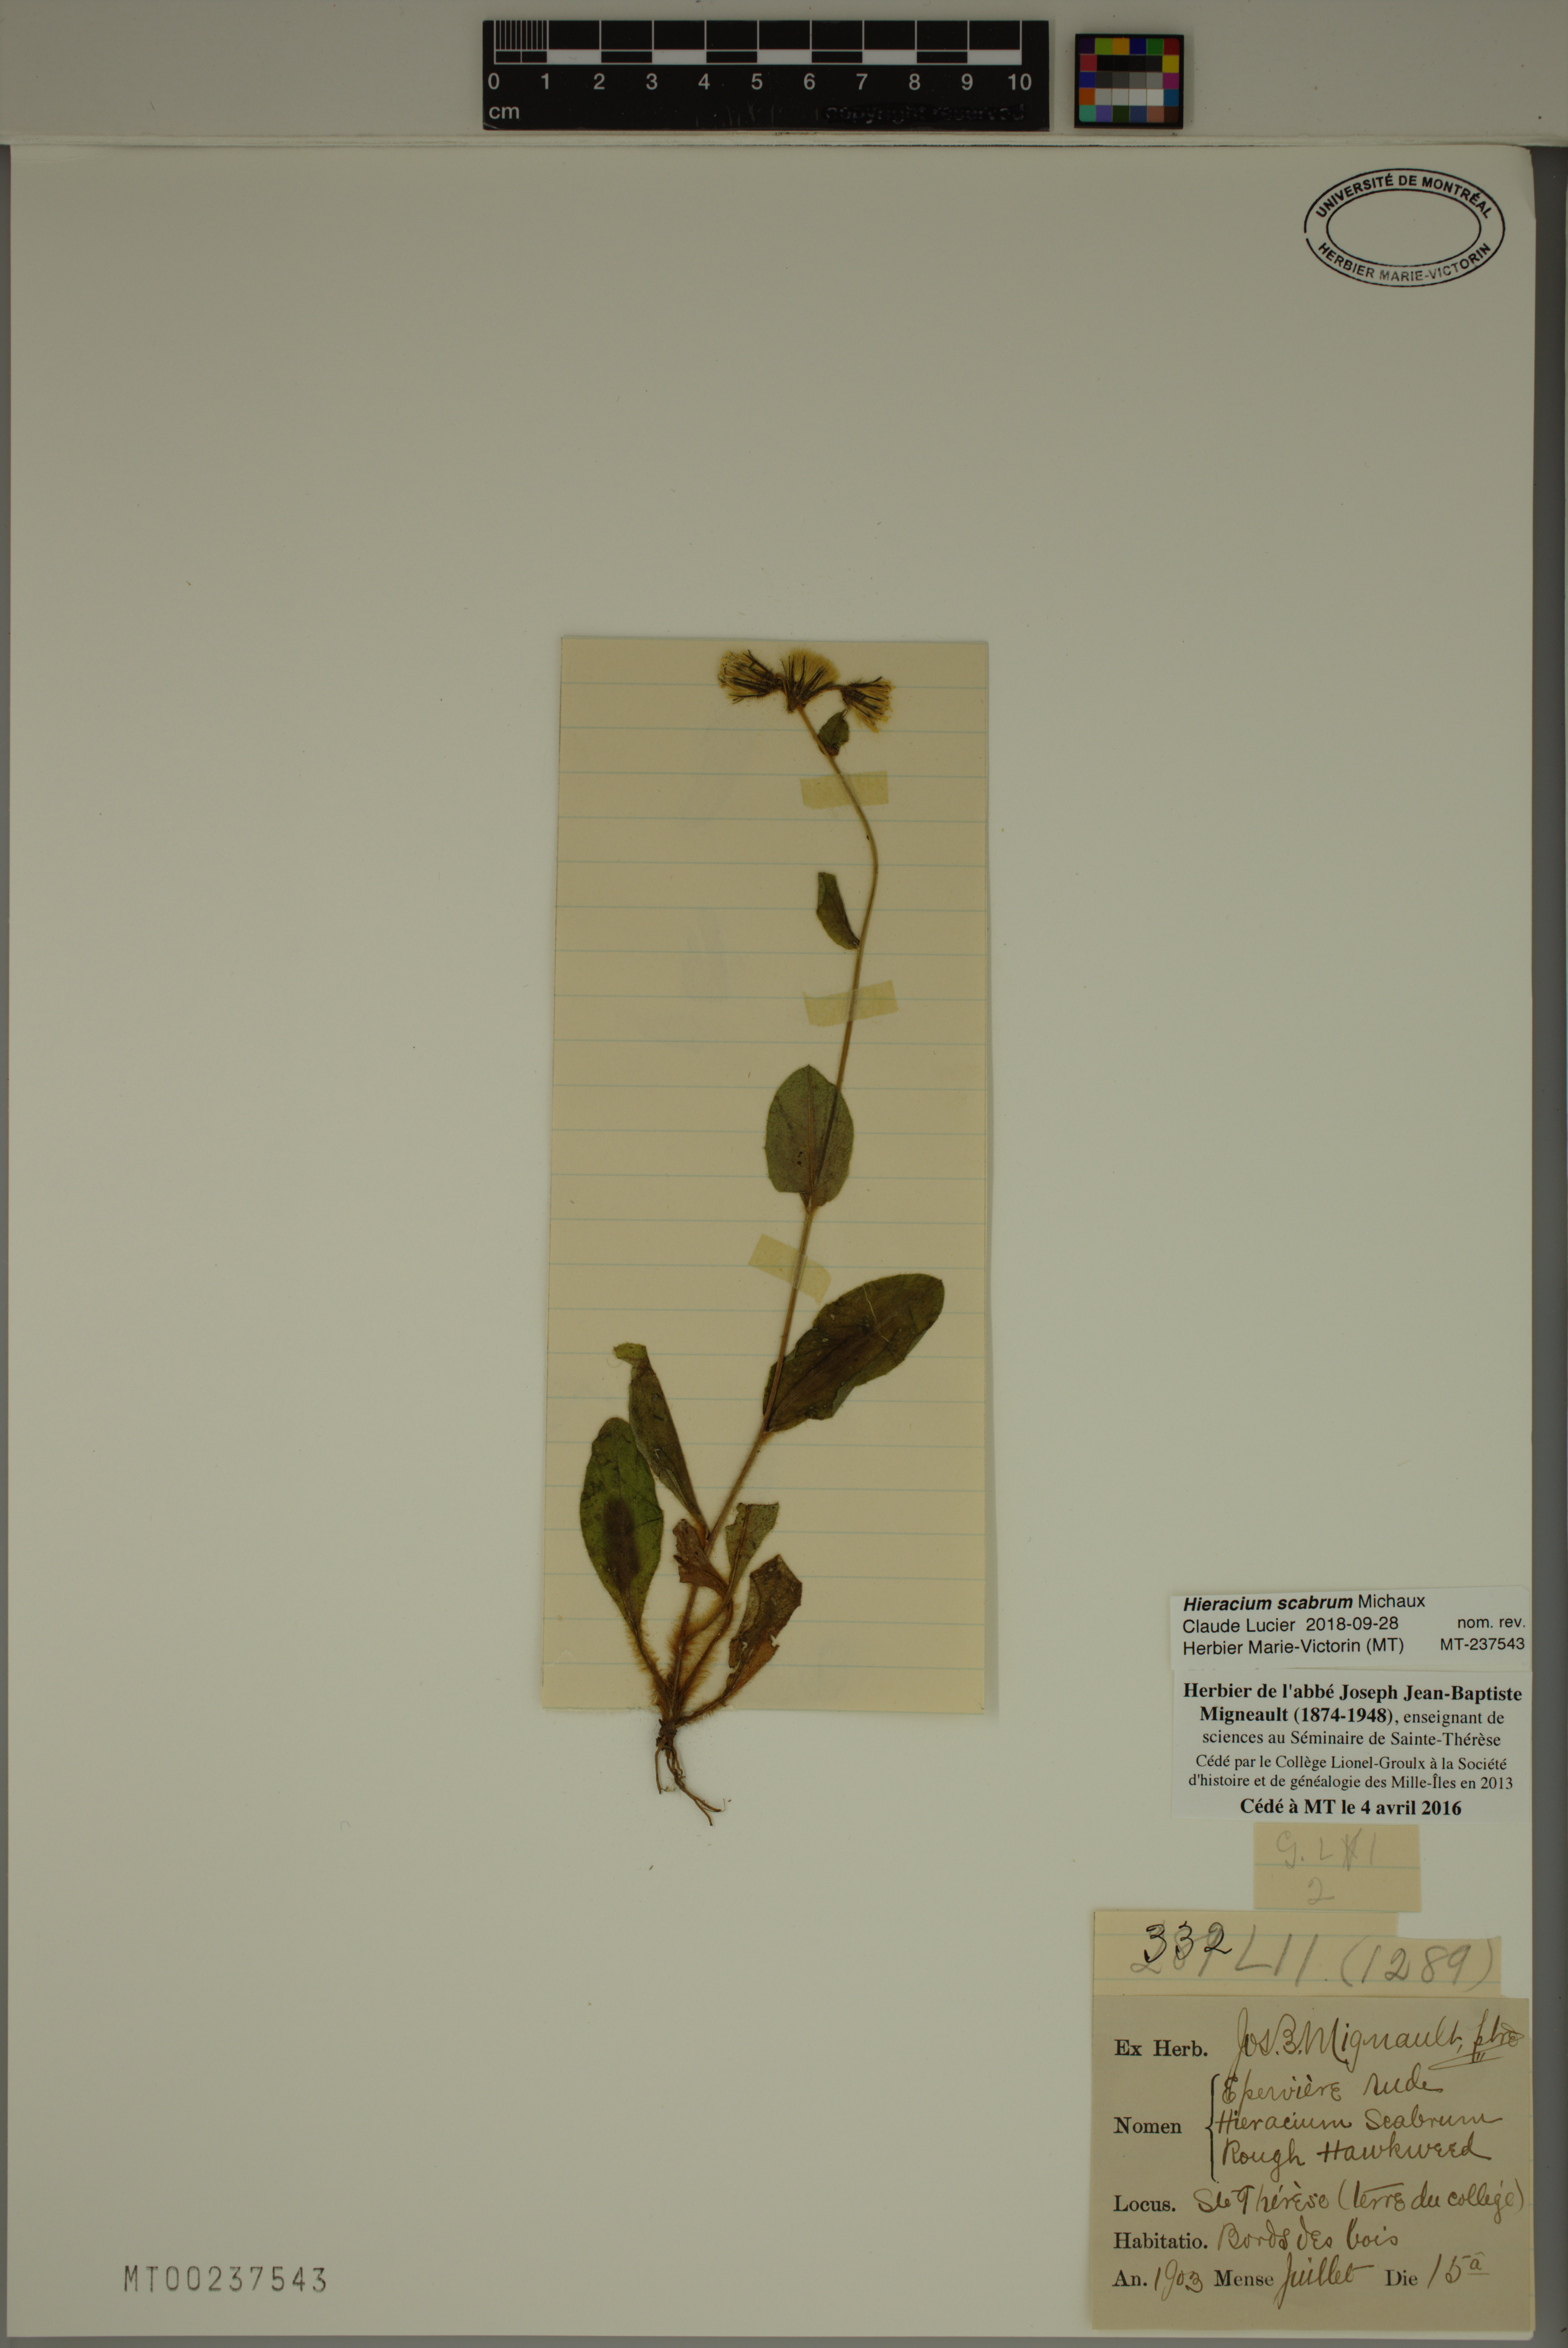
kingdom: Plantae
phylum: Tracheophyta
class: Magnoliopsida
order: Asterales
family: Asteraceae
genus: Hieracium
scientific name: Hieracium scabrum
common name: Rough hawkweed
